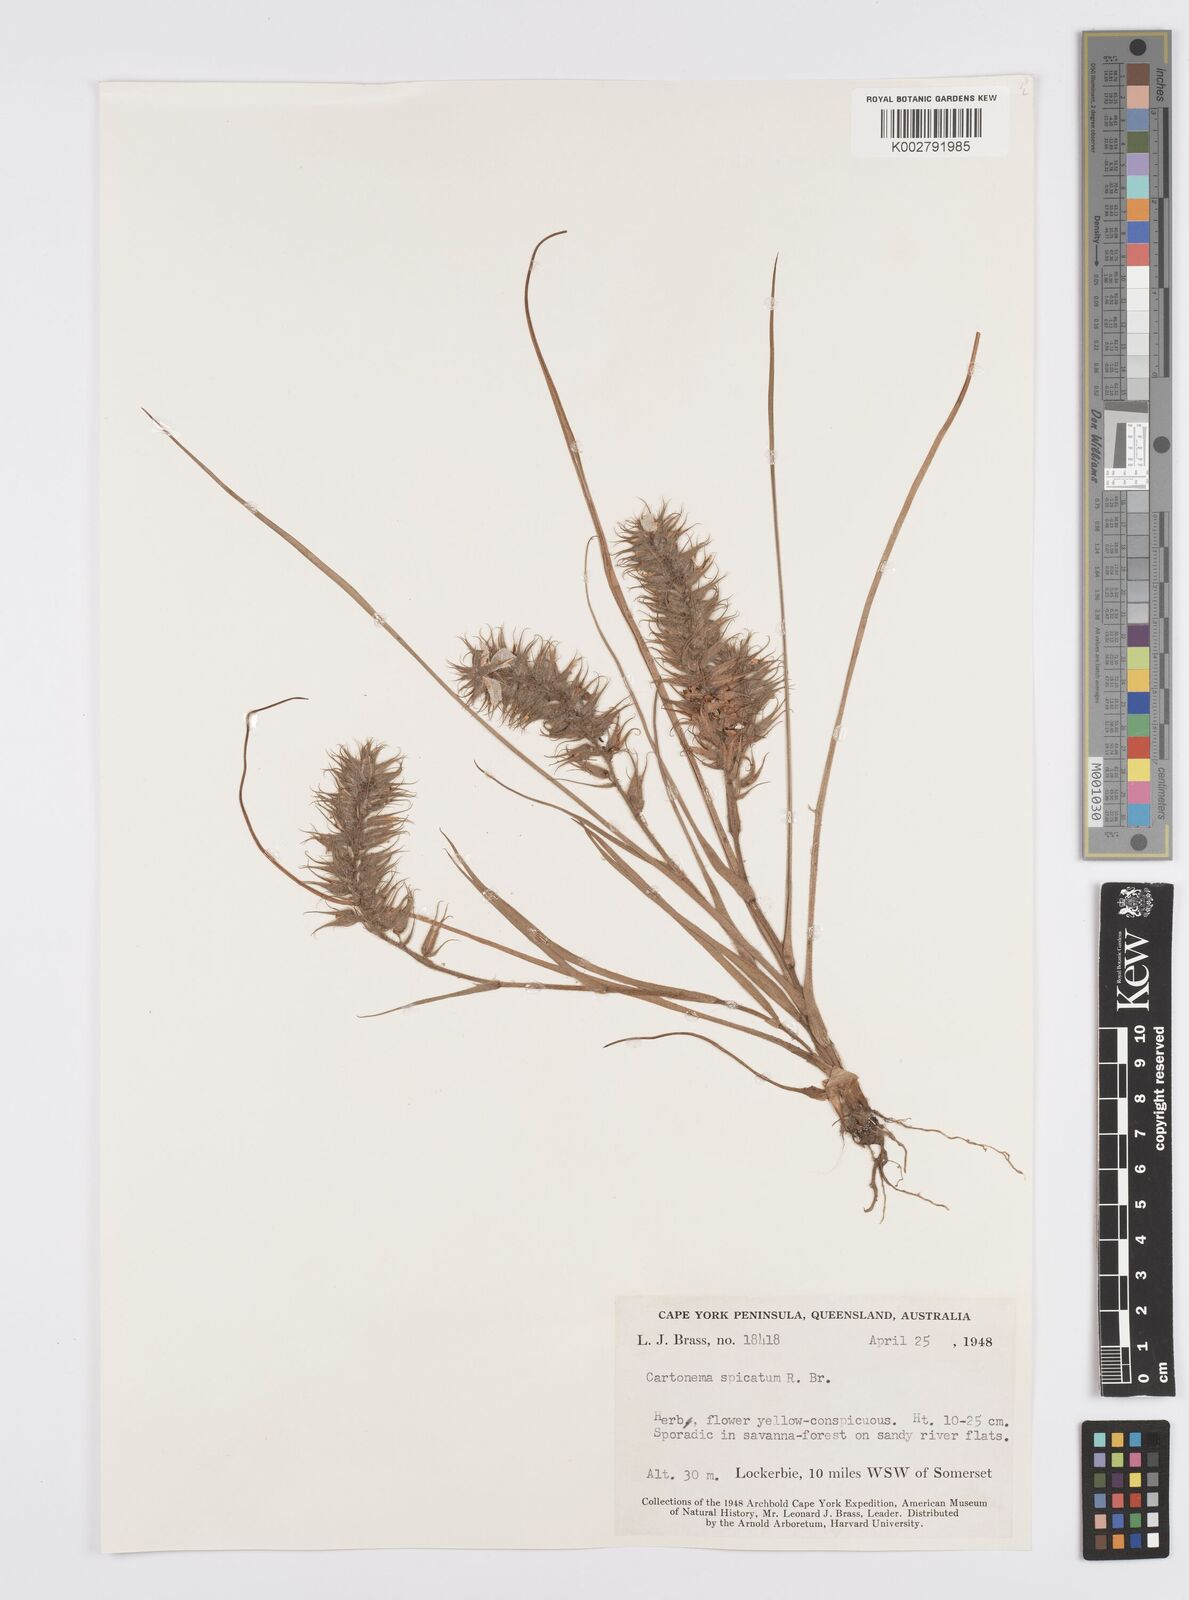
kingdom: Plantae
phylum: Tracheophyta
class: Liliopsida
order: Commelinales
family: Commelinaceae
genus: Cartonema
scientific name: Cartonema spicatum
